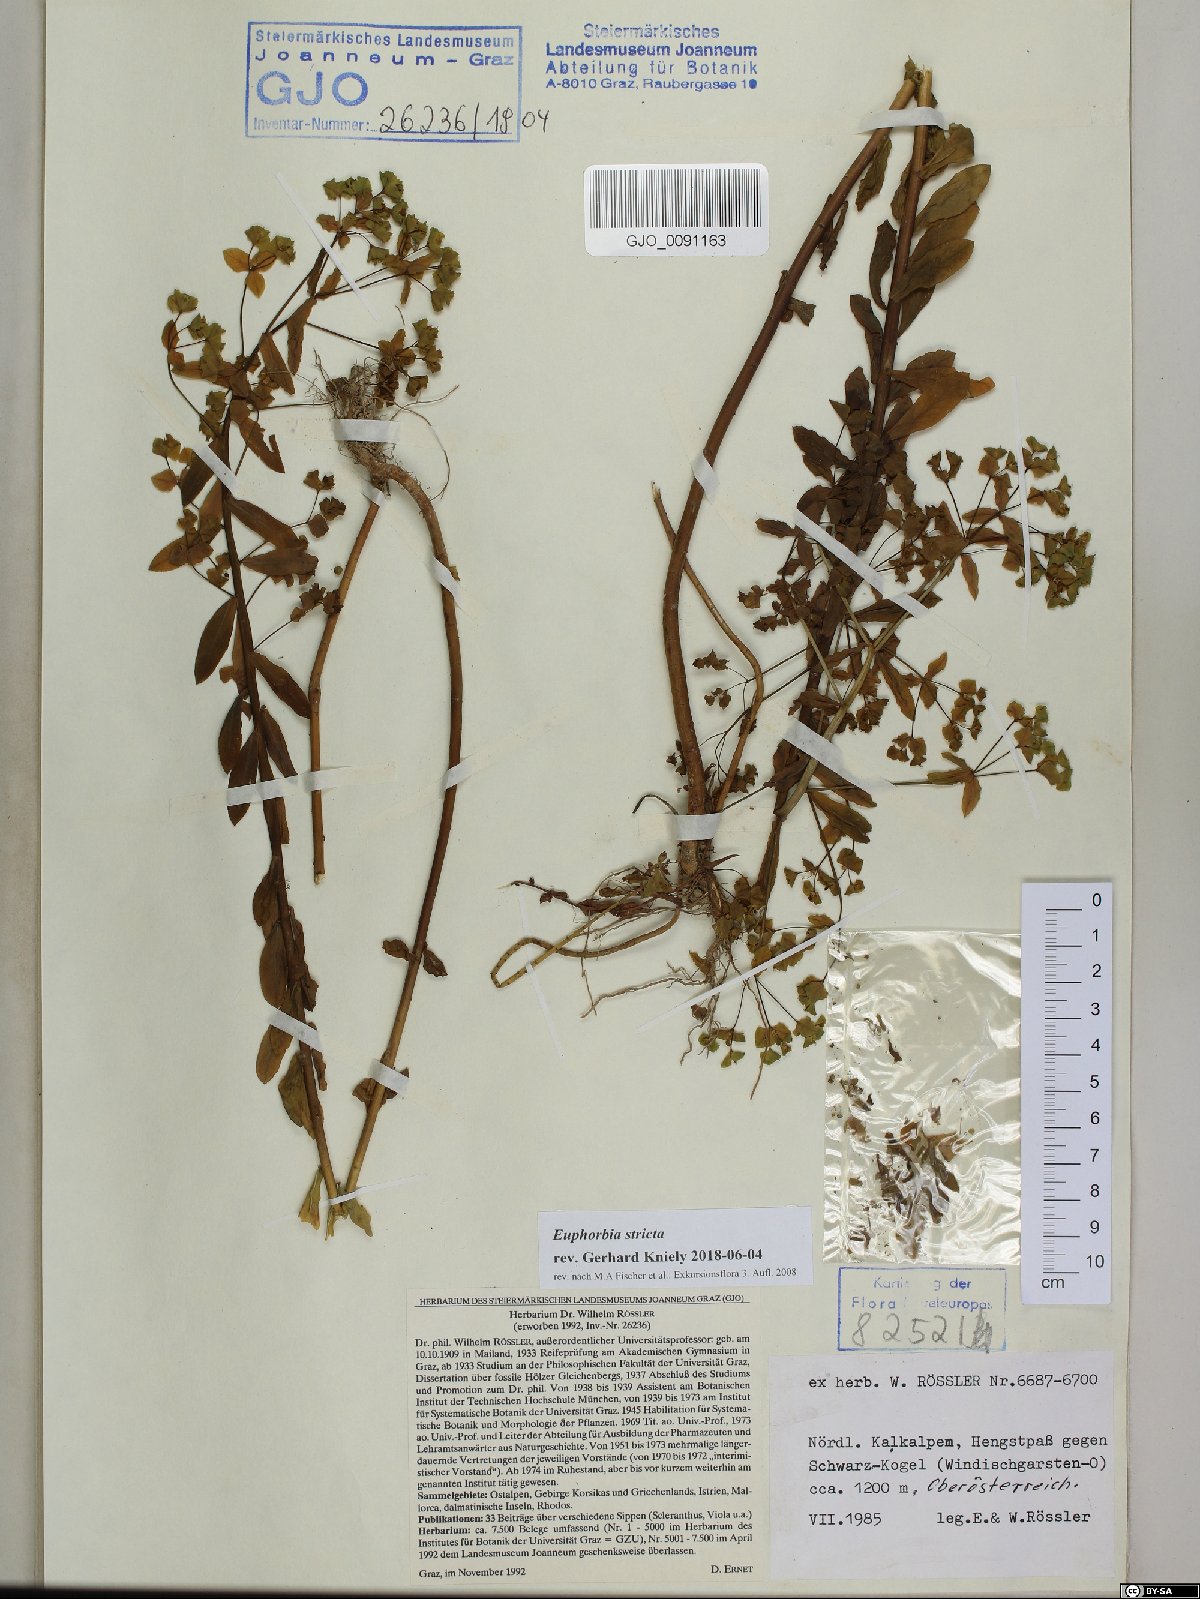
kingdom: Plantae
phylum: Tracheophyta
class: Magnoliopsida
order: Malpighiales
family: Euphorbiaceae
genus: Euphorbia
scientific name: Euphorbia stricta
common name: Upright spurge
